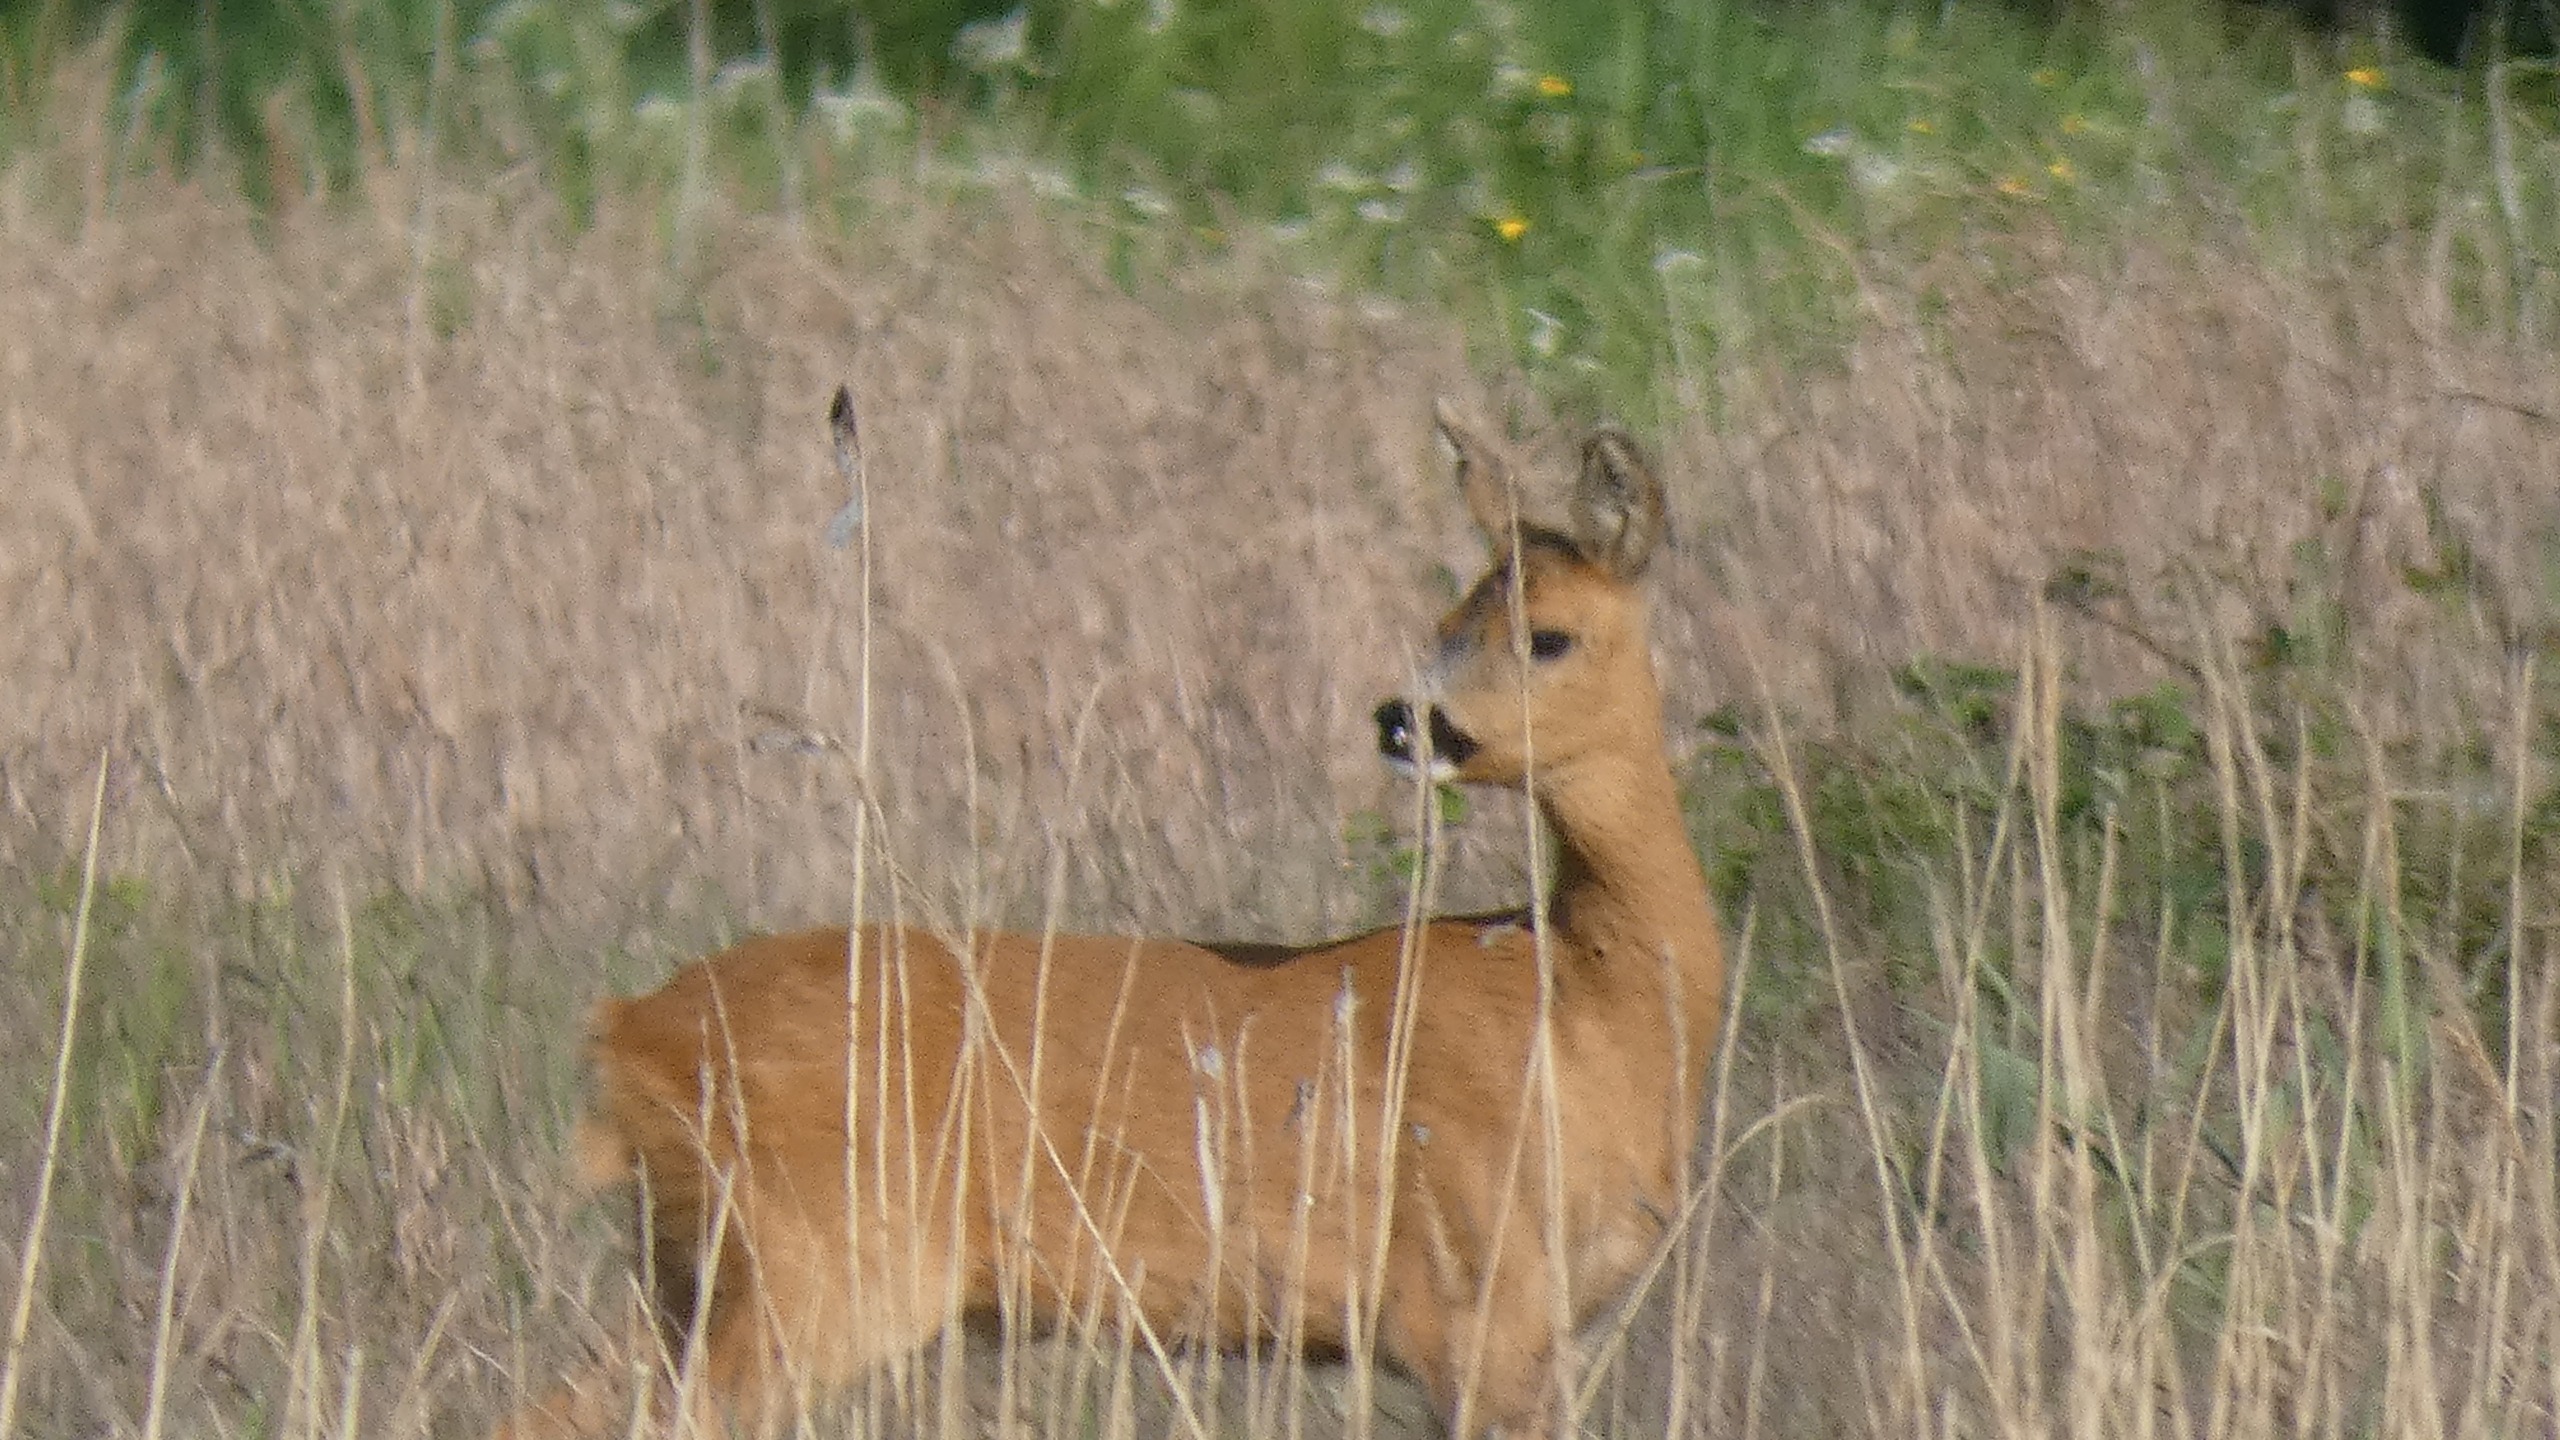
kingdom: Animalia
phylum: Chordata
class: Mammalia
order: Artiodactyla
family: Cervidae
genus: Capreolus
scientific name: Capreolus capreolus
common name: Rådyr
